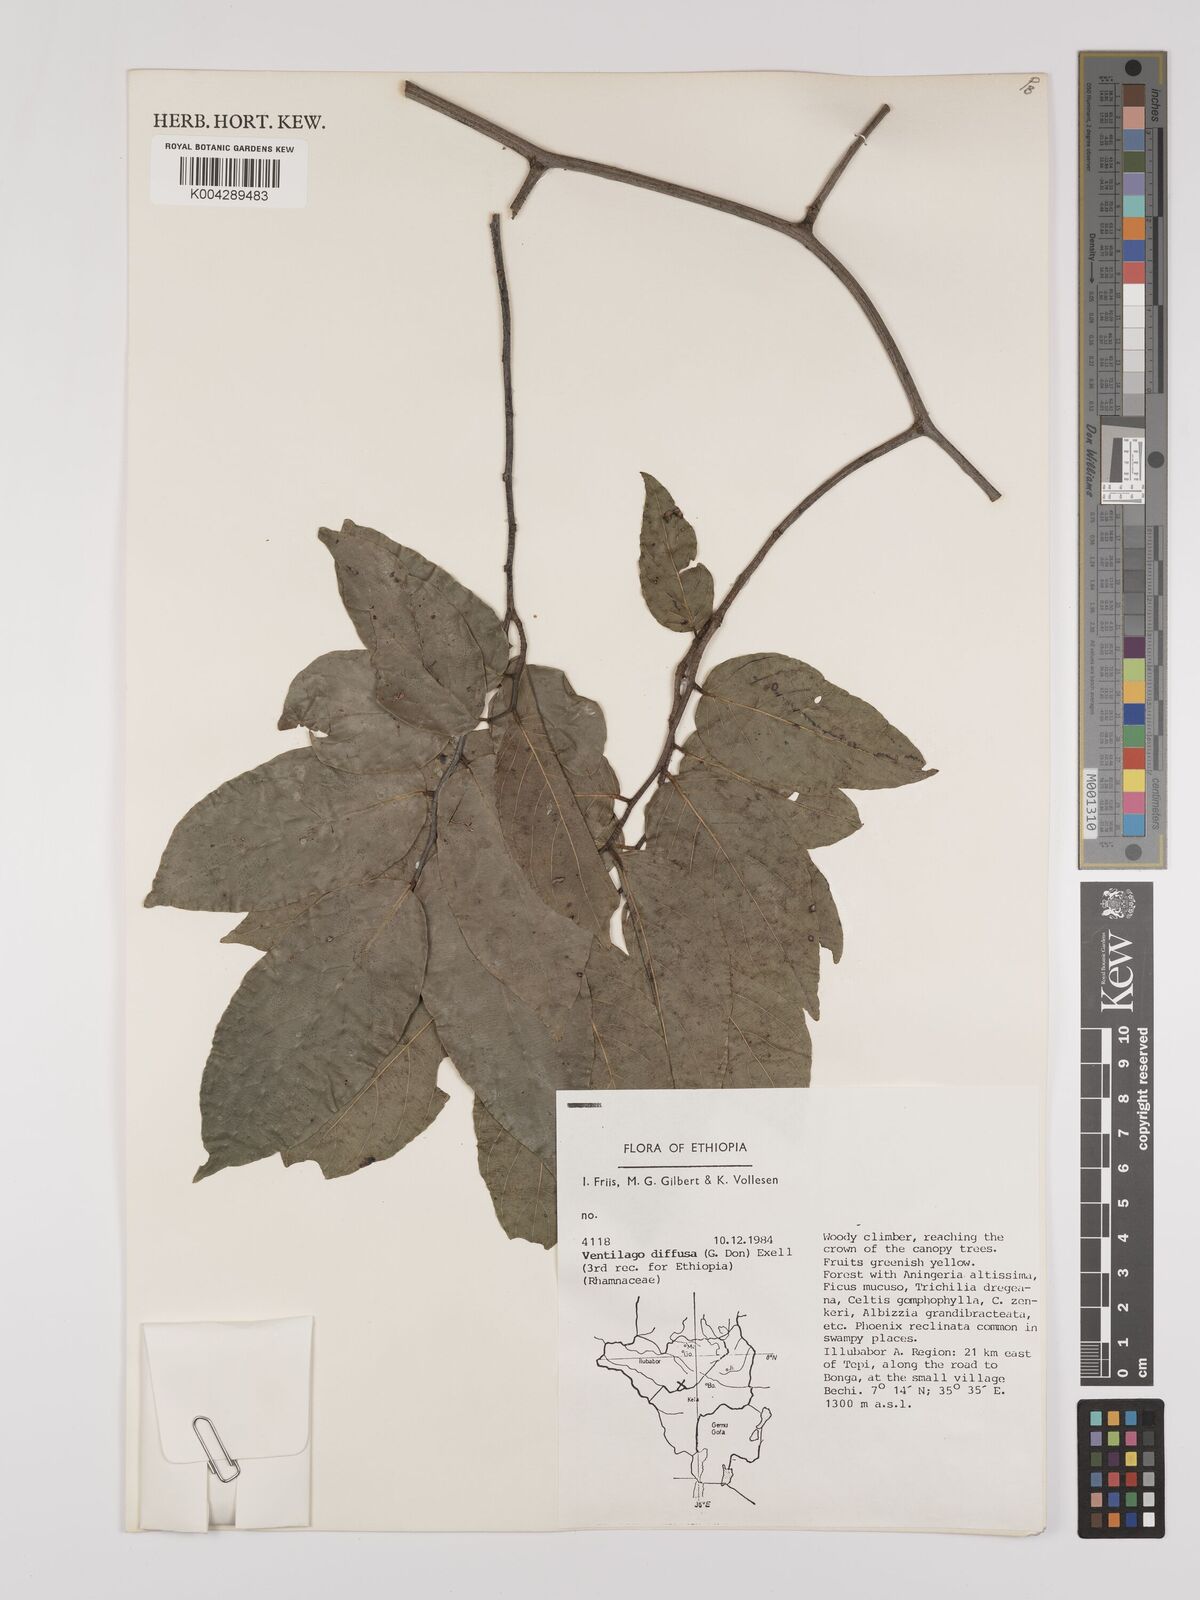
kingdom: Plantae
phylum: Tracheophyta
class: Magnoliopsida
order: Rosales
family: Rhamnaceae
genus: Ventilago
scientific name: Ventilago diffusa
